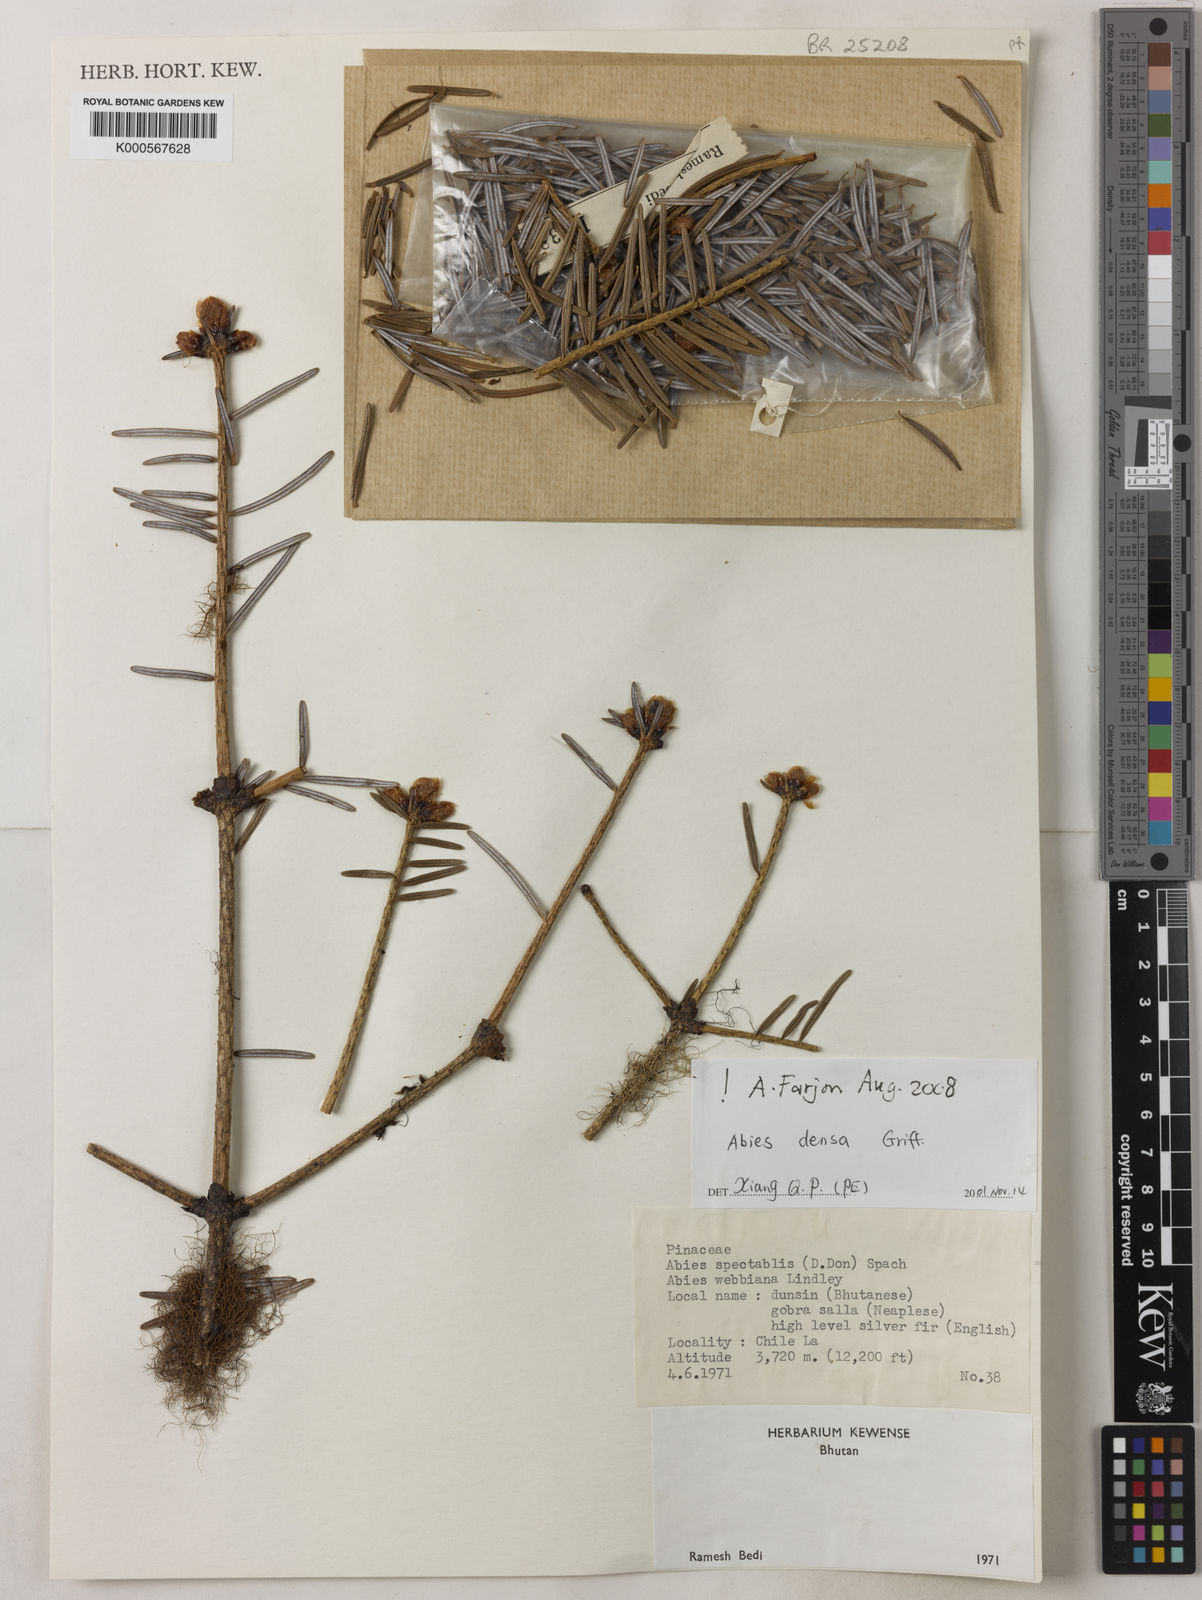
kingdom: Plantae
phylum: Tracheophyta
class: Pinopsida
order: Pinales
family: Pinaceae
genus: Abies
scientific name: Abies densa
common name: Sikkim fir
